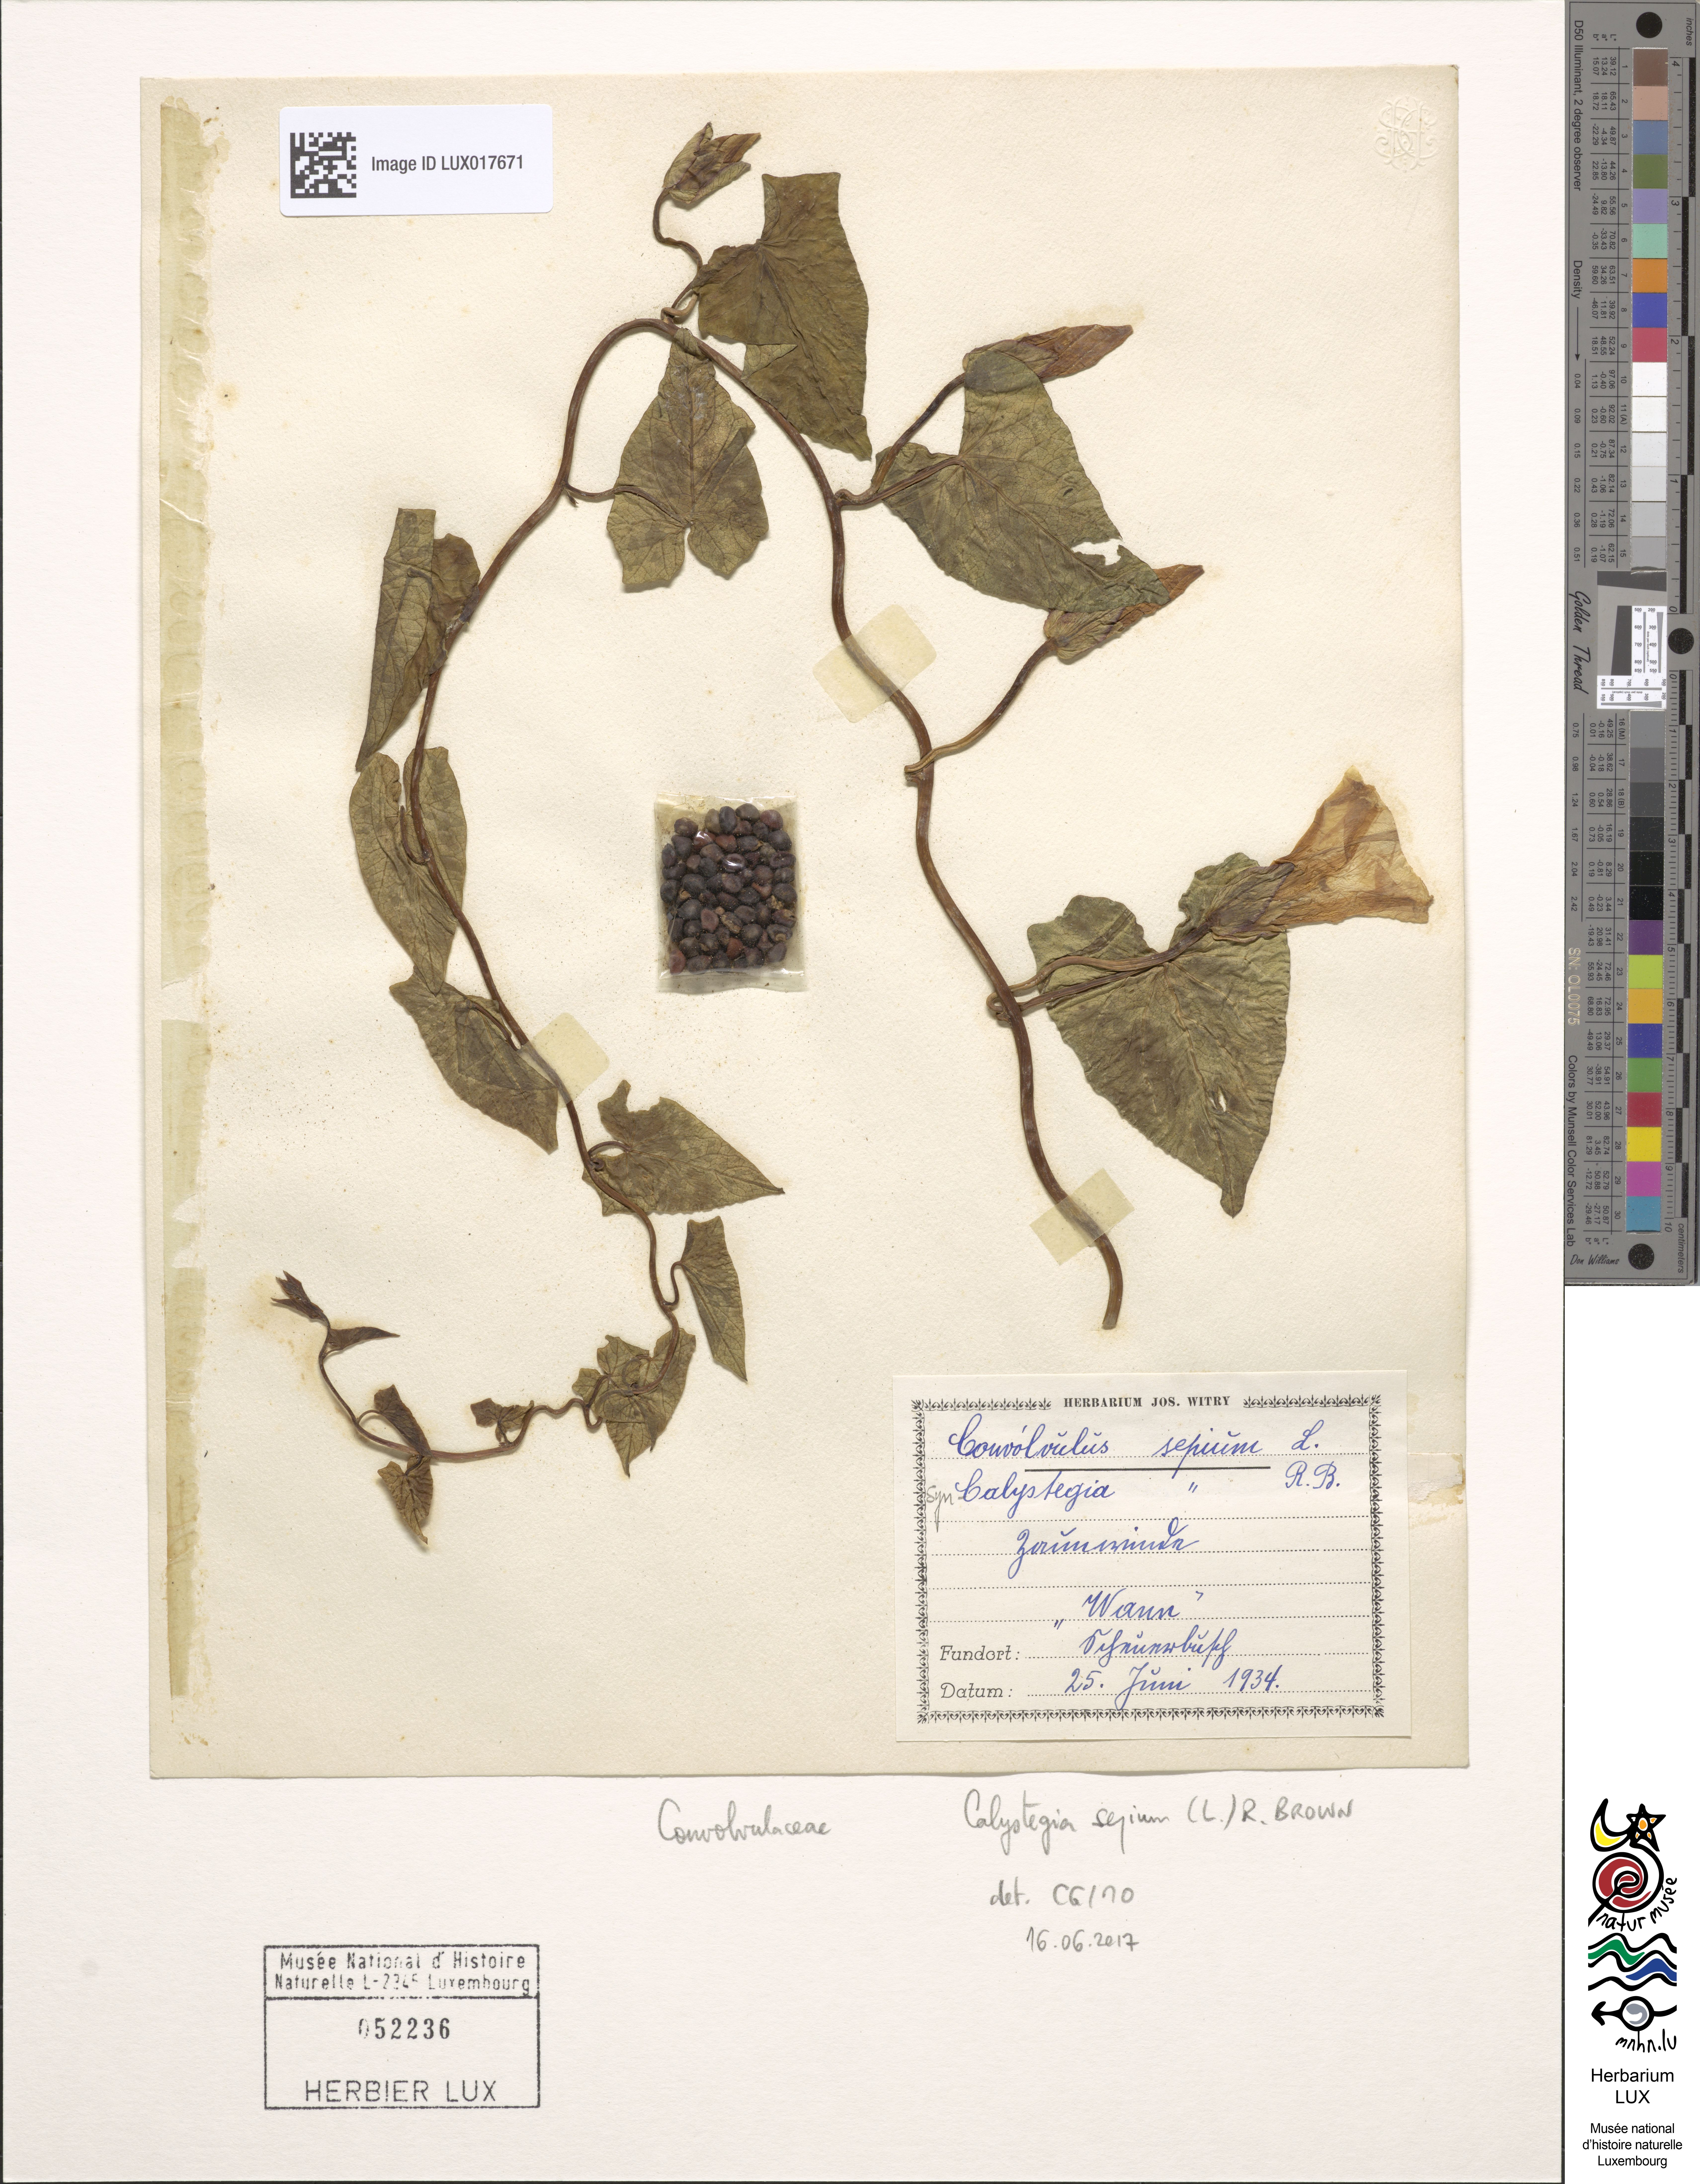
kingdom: Plantae
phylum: Tracheophyta
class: Magnoliopsida
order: Solanales
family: Convolvulaceae
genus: Calystegia
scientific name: Calystegia sepium
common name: Hedge bindweed
